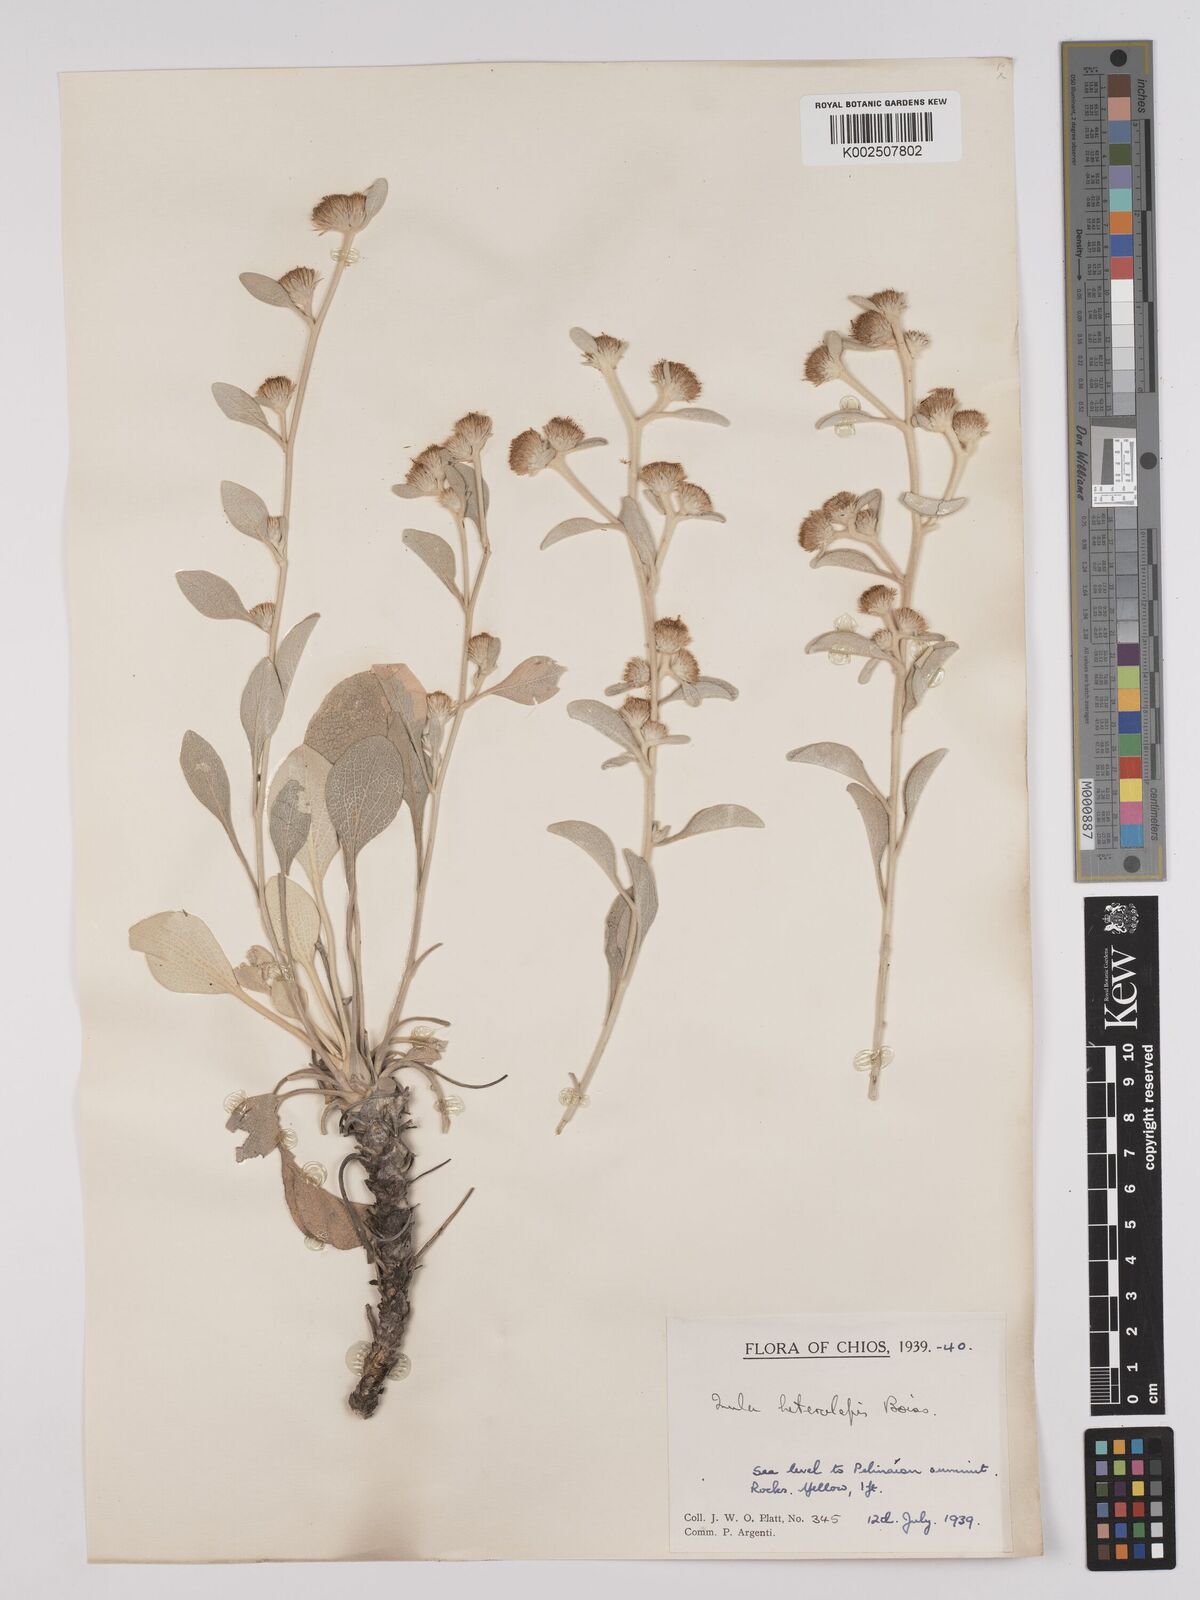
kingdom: Plantae
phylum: Tracheophyta
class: Magnoliopsida
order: Asterales
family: Asteraceae
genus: Pentanema
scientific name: Pentanema verbascifolium
